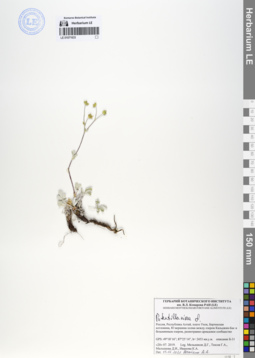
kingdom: Plantae
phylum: Tracheophyta
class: Magnoliopsida
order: Rosales
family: Rosaceae
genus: Potentilla
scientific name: Potentilla nivea
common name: Snow cinquefoil
